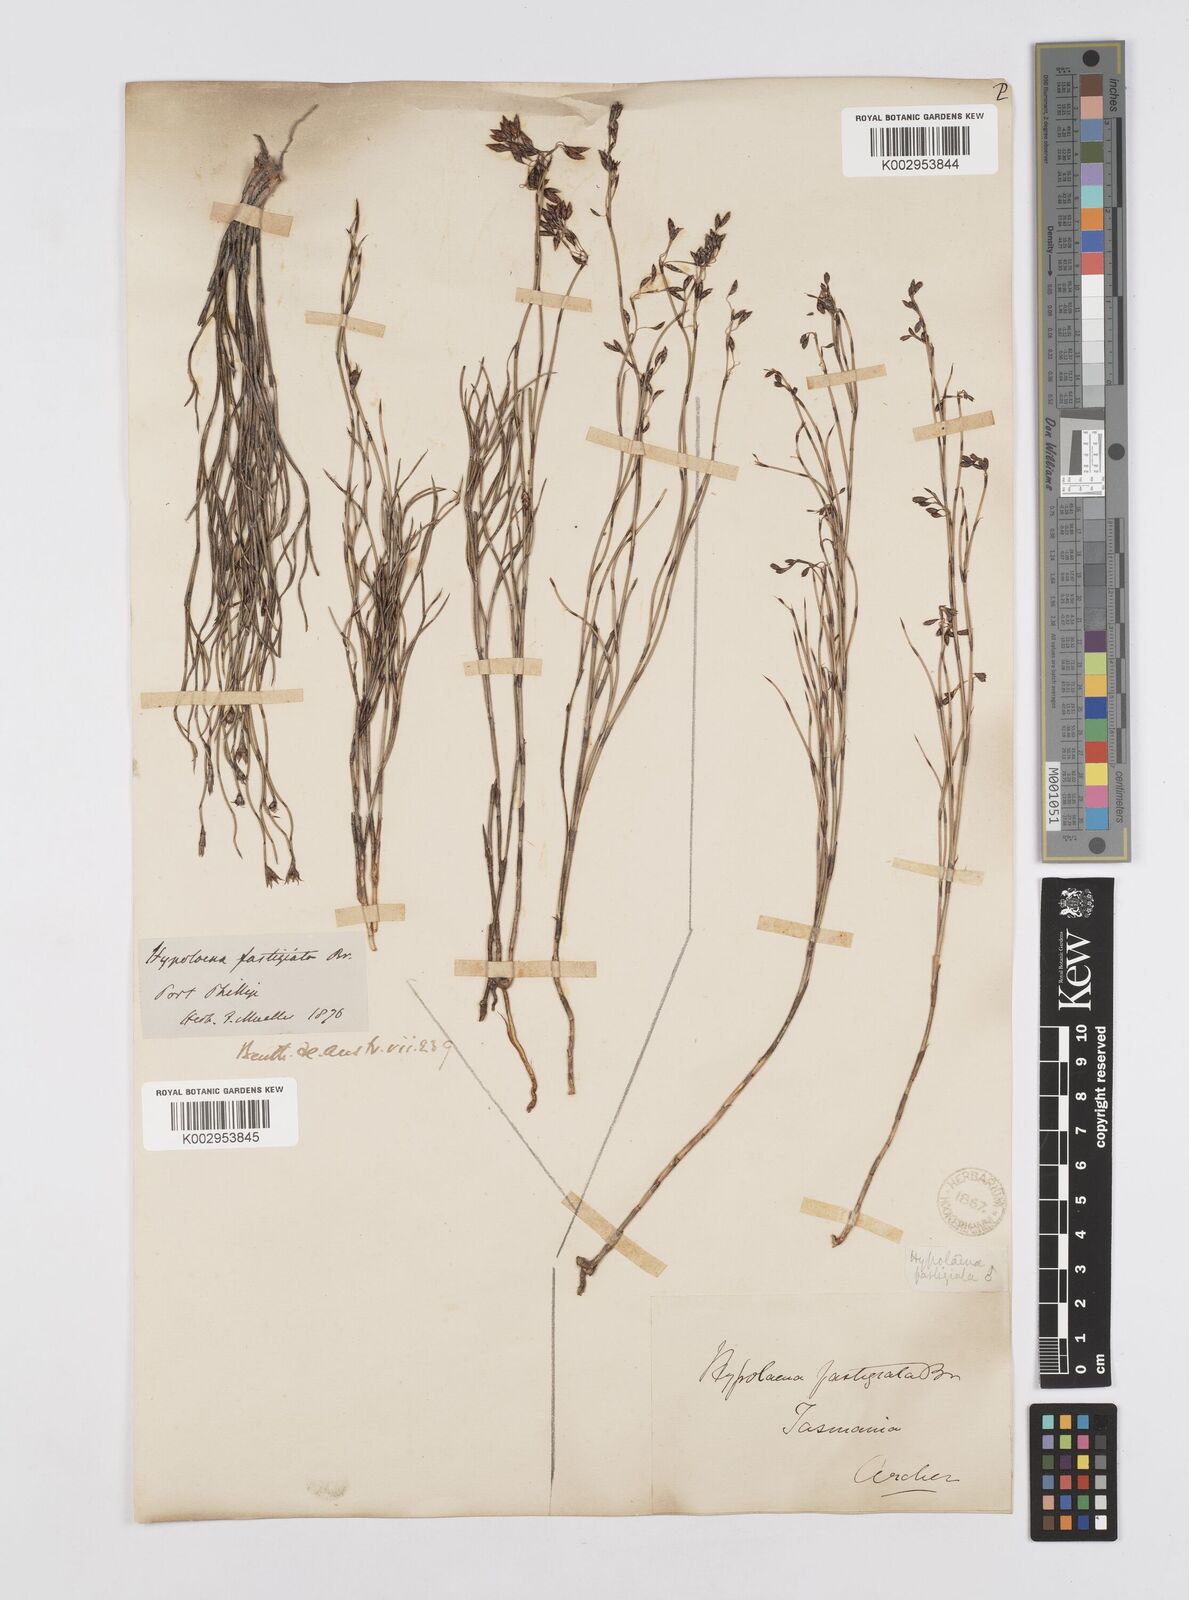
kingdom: Plantae
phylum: Tracheophyta
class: Liliopsida
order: Poales
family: Restionaceae
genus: Hypolaena
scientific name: Hypolaena fastigiata
